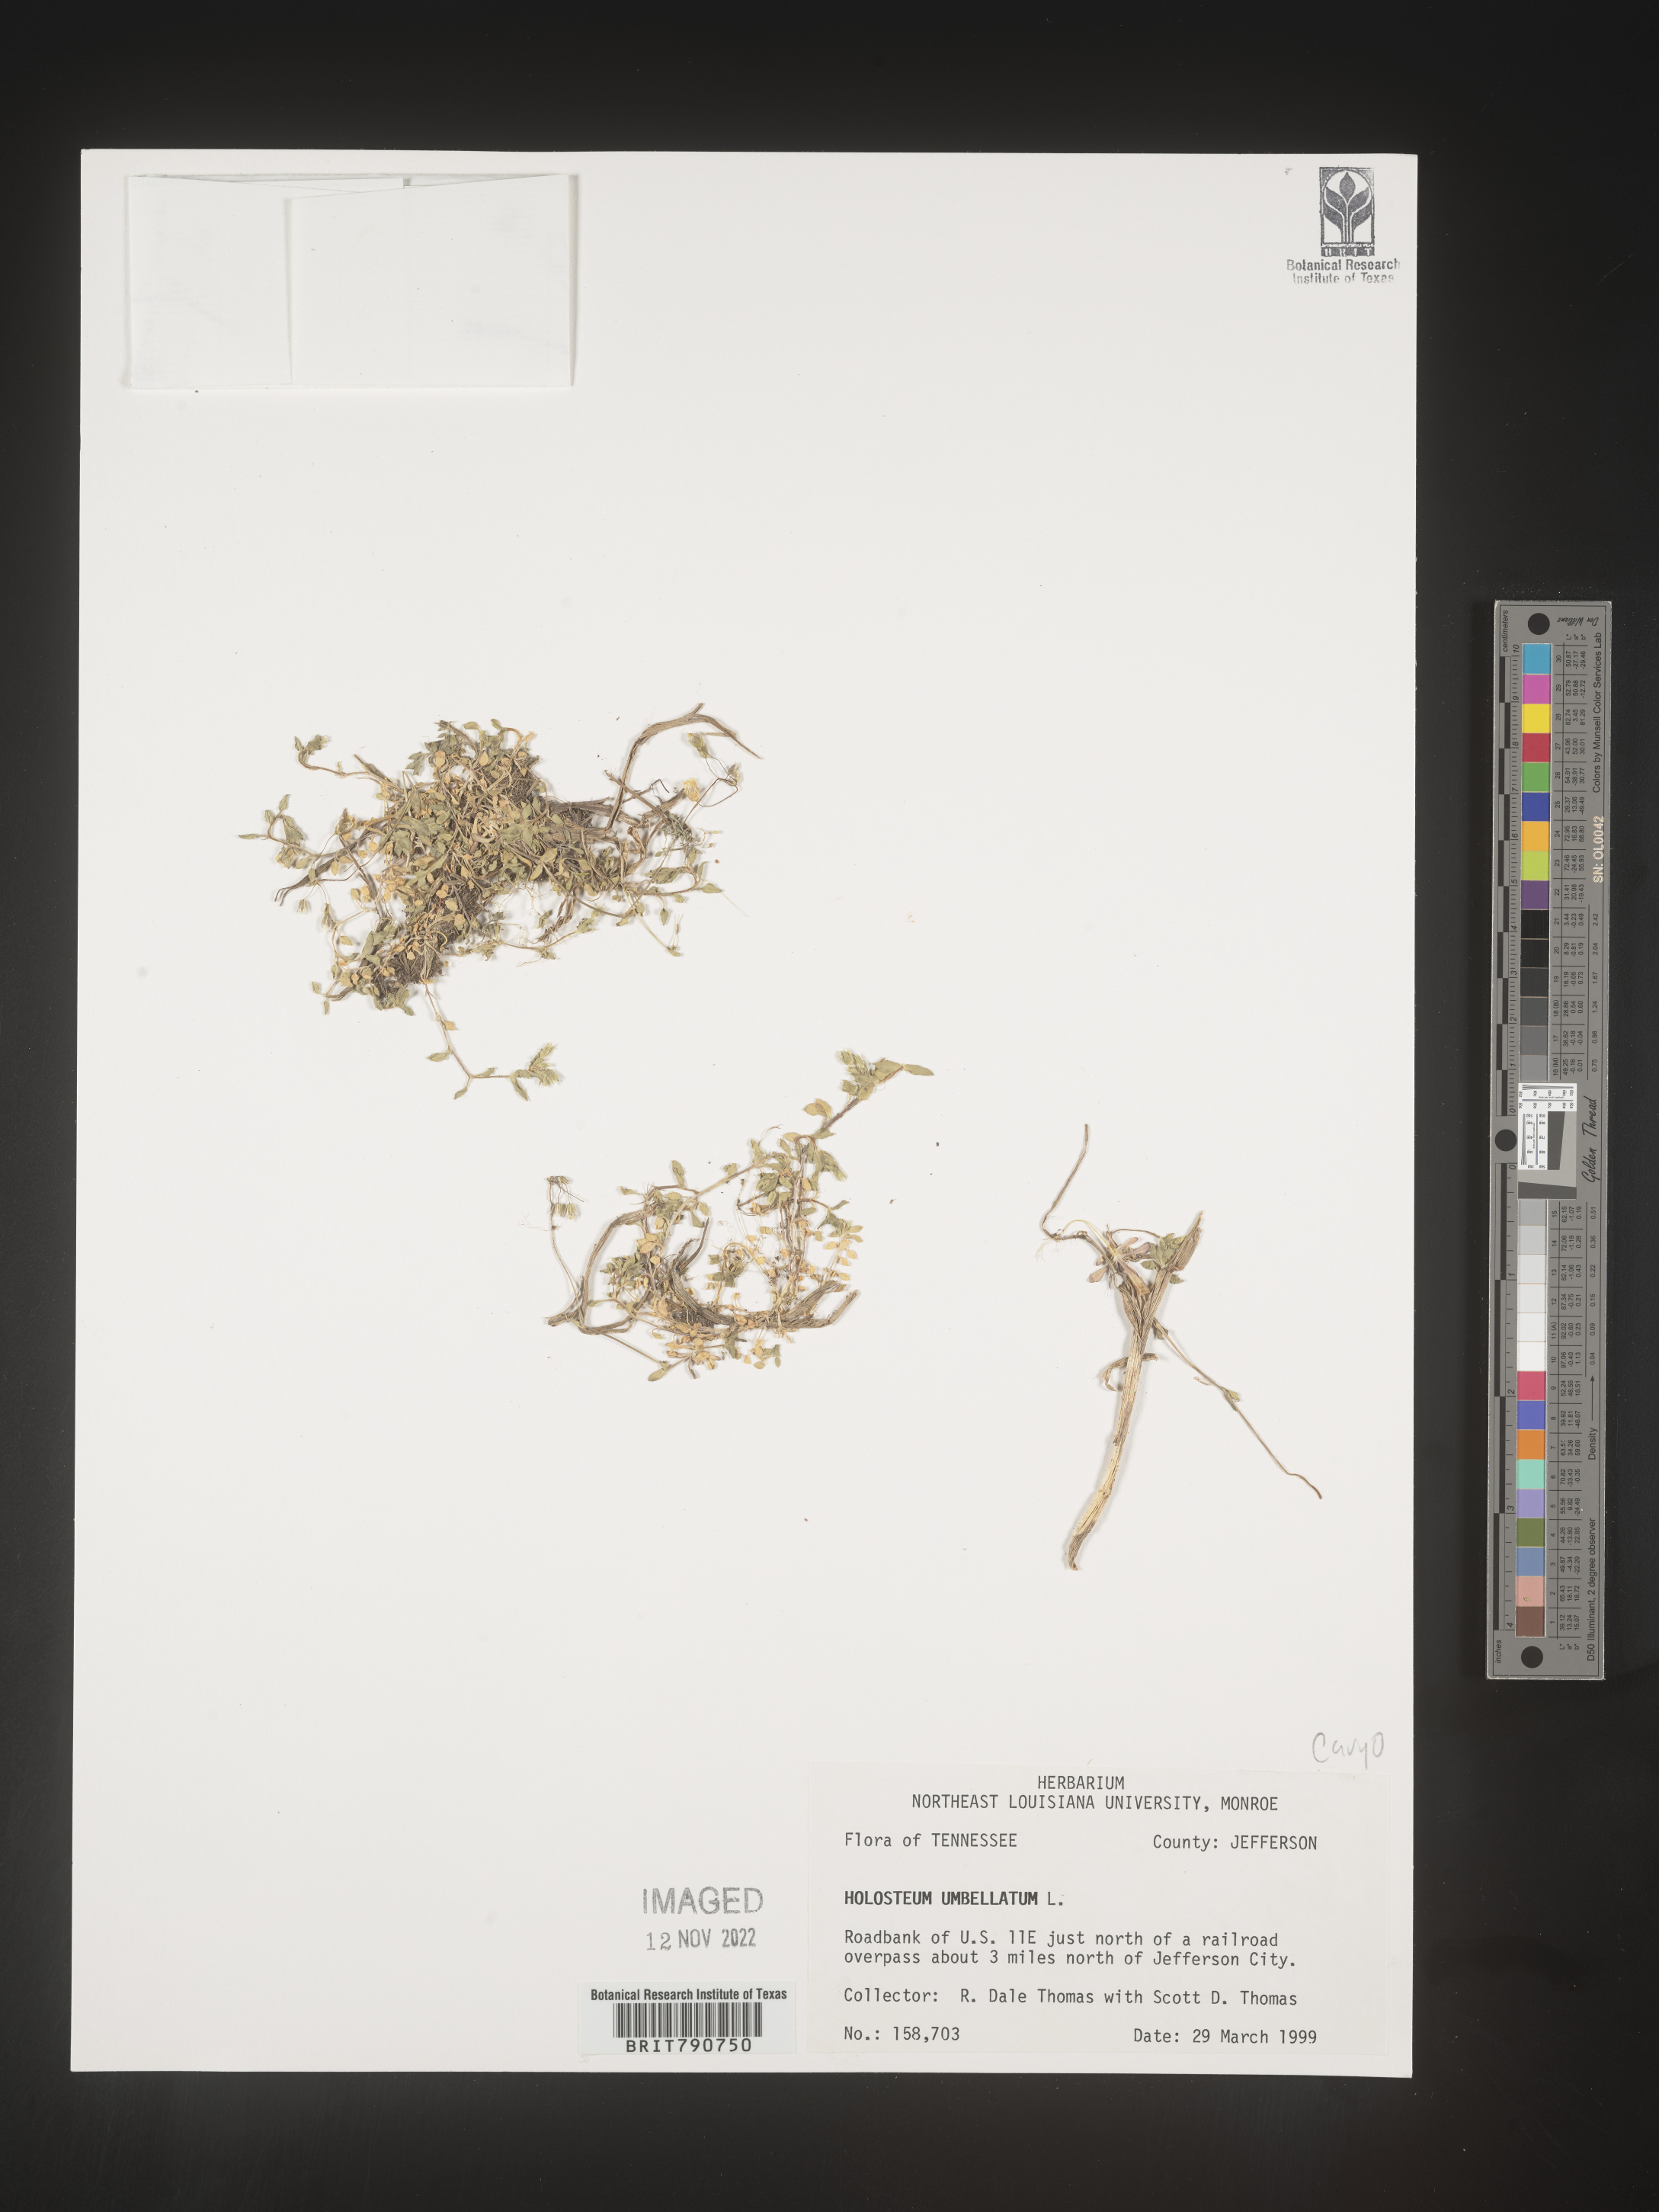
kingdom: Plantae
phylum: Tracheophyta
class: Magnoliopsida
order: Caryophyllales
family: Caryophyllaceae
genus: Holosteum
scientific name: Holosteum
